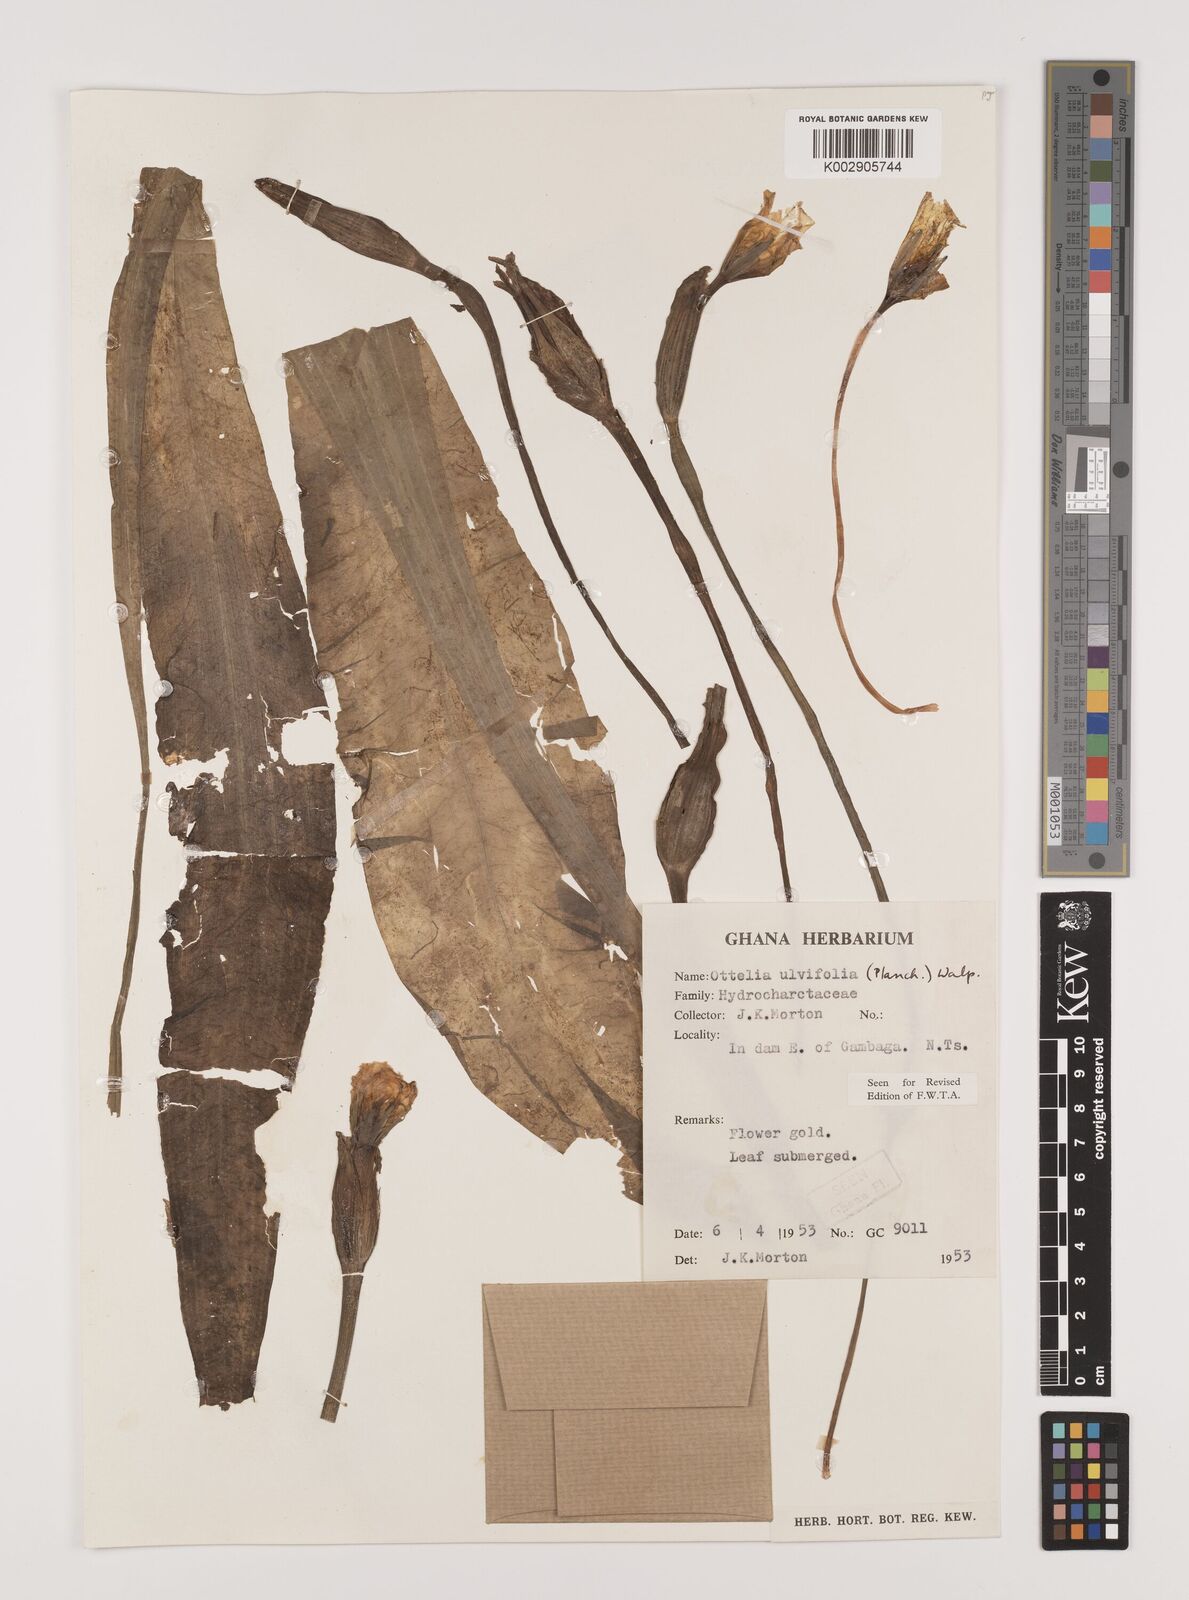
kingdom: Plantae
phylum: Tracheophyta
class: Liliopsida
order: Alismatales
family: Hydrocharitaceae
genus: Ottelia
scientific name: Ottelia ulvifolia
